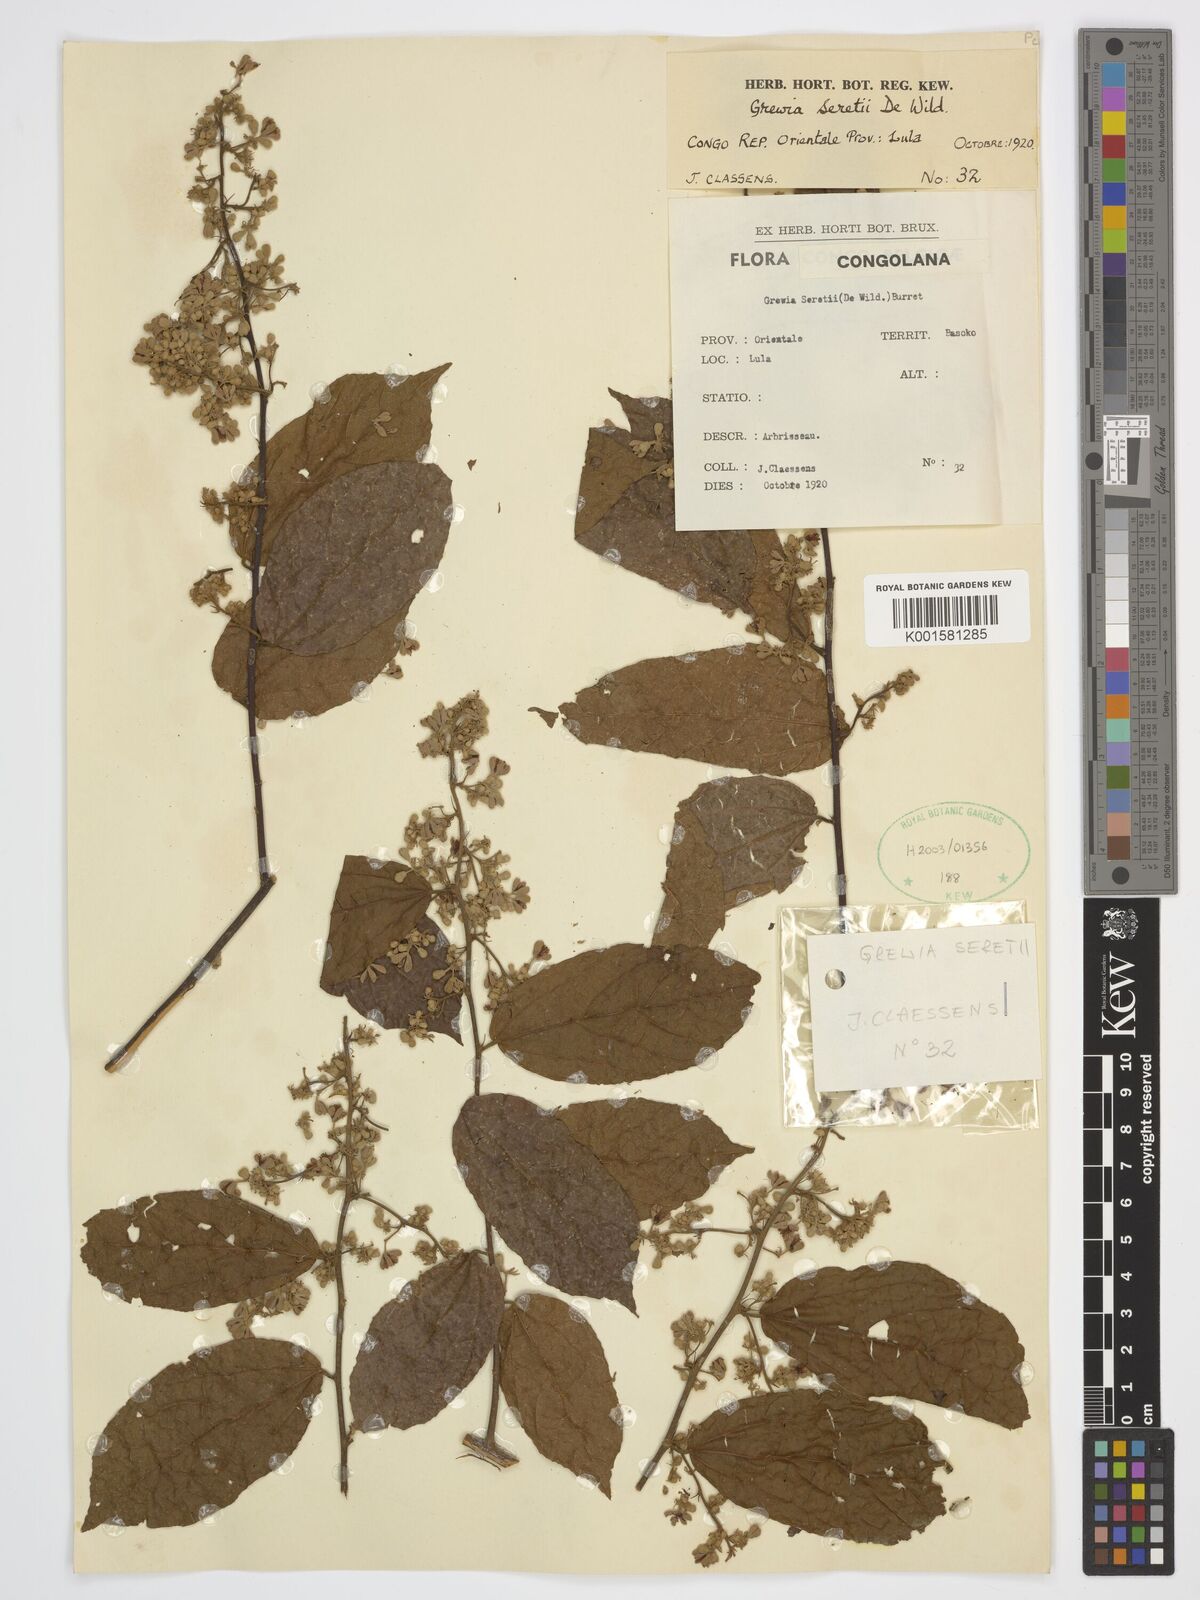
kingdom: Plantae
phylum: Tracheophyta
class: Magnoliopsida
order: Malvales
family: Malvaceae
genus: Microcos
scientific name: Microcos seretii
